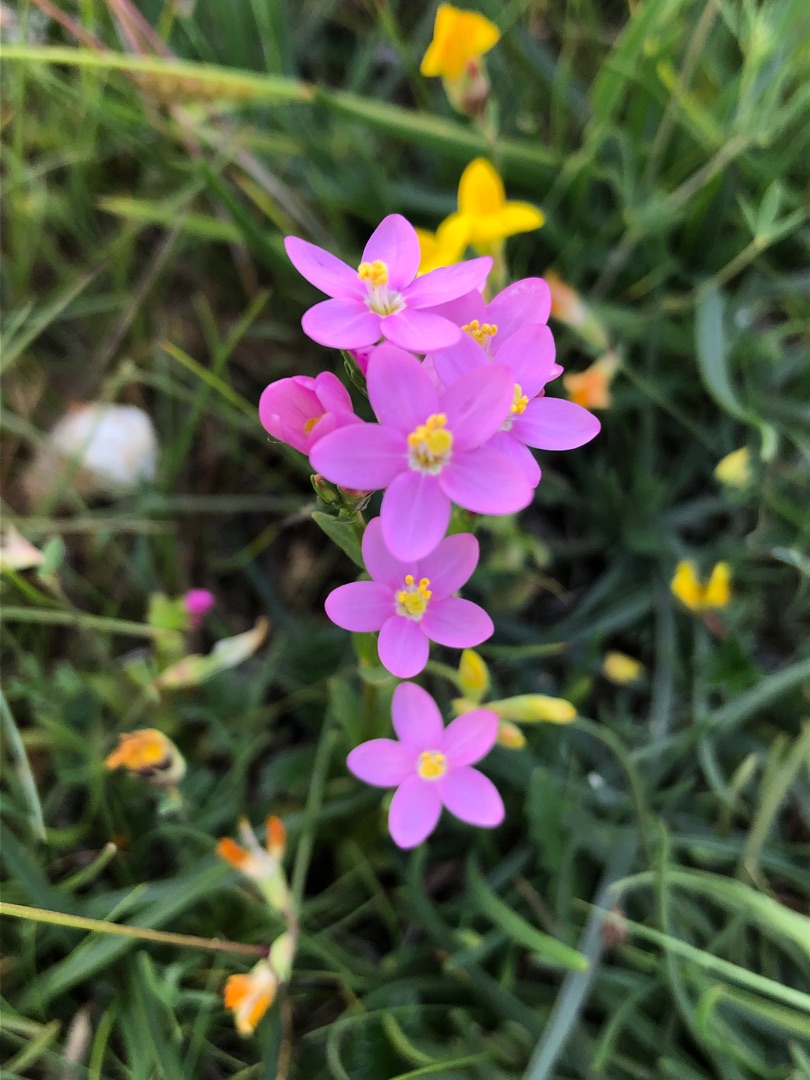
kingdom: Plantae
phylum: Tracheophyta
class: Magnoliopsida
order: Gentianales
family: Gentianaceae
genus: Centaurium
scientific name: Centaurium erythraea
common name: Mark-tusindgylden
